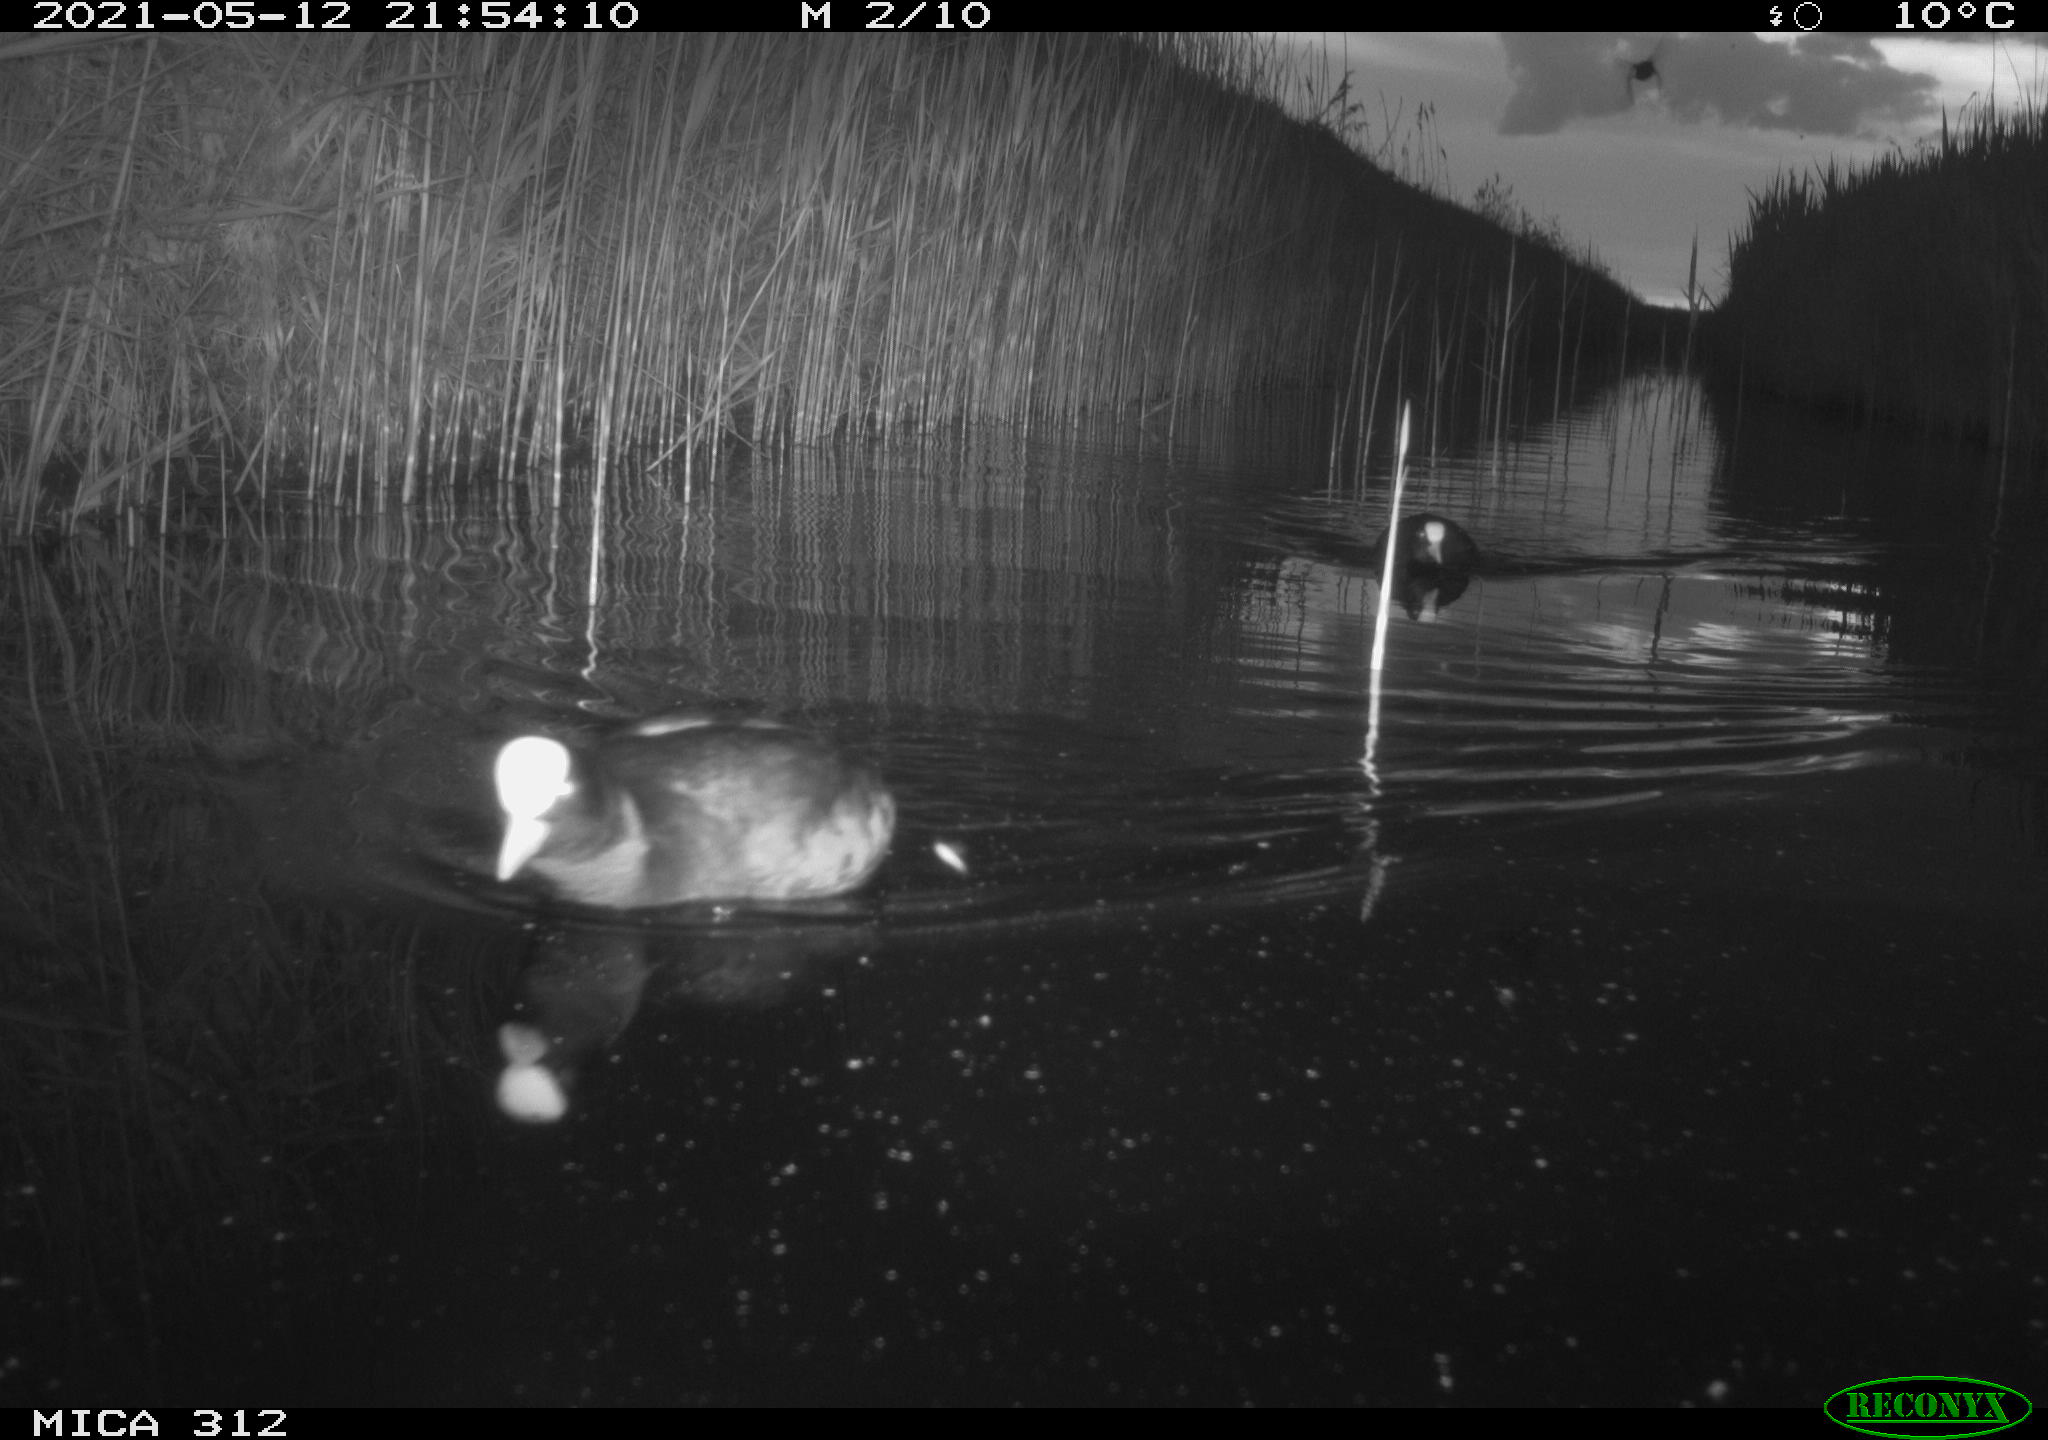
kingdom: Animalia
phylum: Chordata
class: Aves
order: Gruiformes
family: Rallidae
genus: Fulica
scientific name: Fulica atra
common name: Eurasian coot
